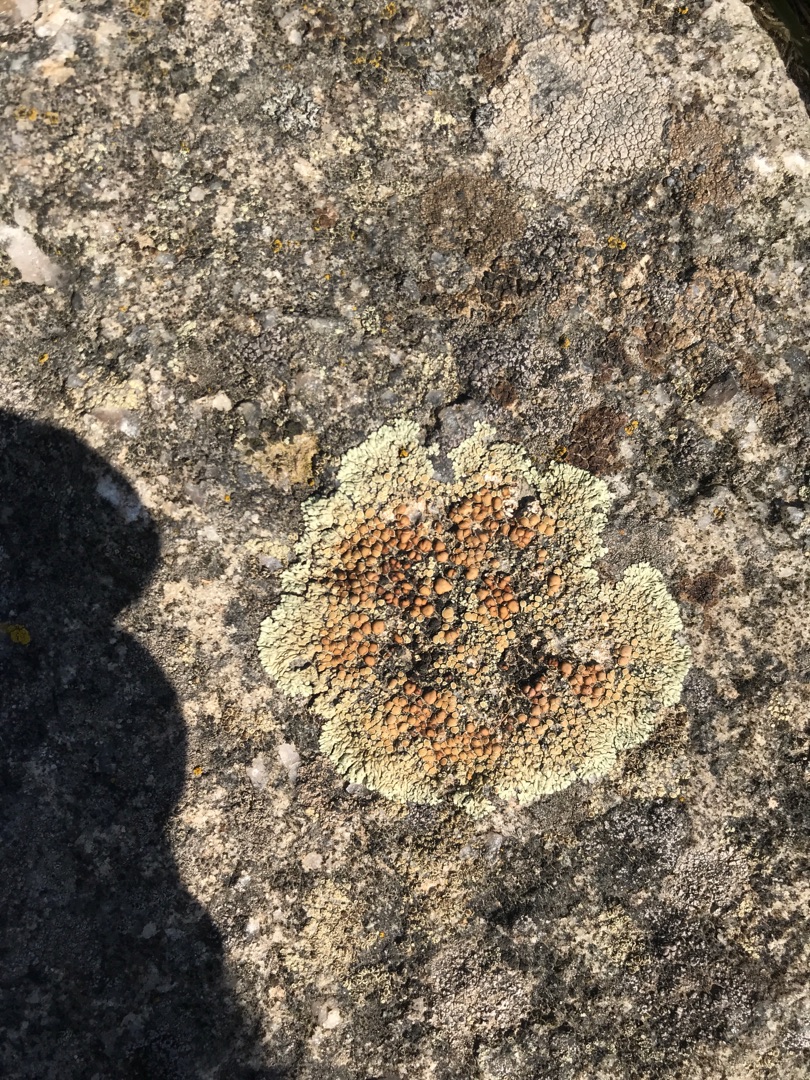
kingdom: Fungi
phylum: Ascomycota
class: Lecanoromycetes
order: Lecanorales
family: Lecanoraceae
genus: Protoparmeliopsis
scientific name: Protoparmeliopsis muralis
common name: Randfliget kantskivelav
